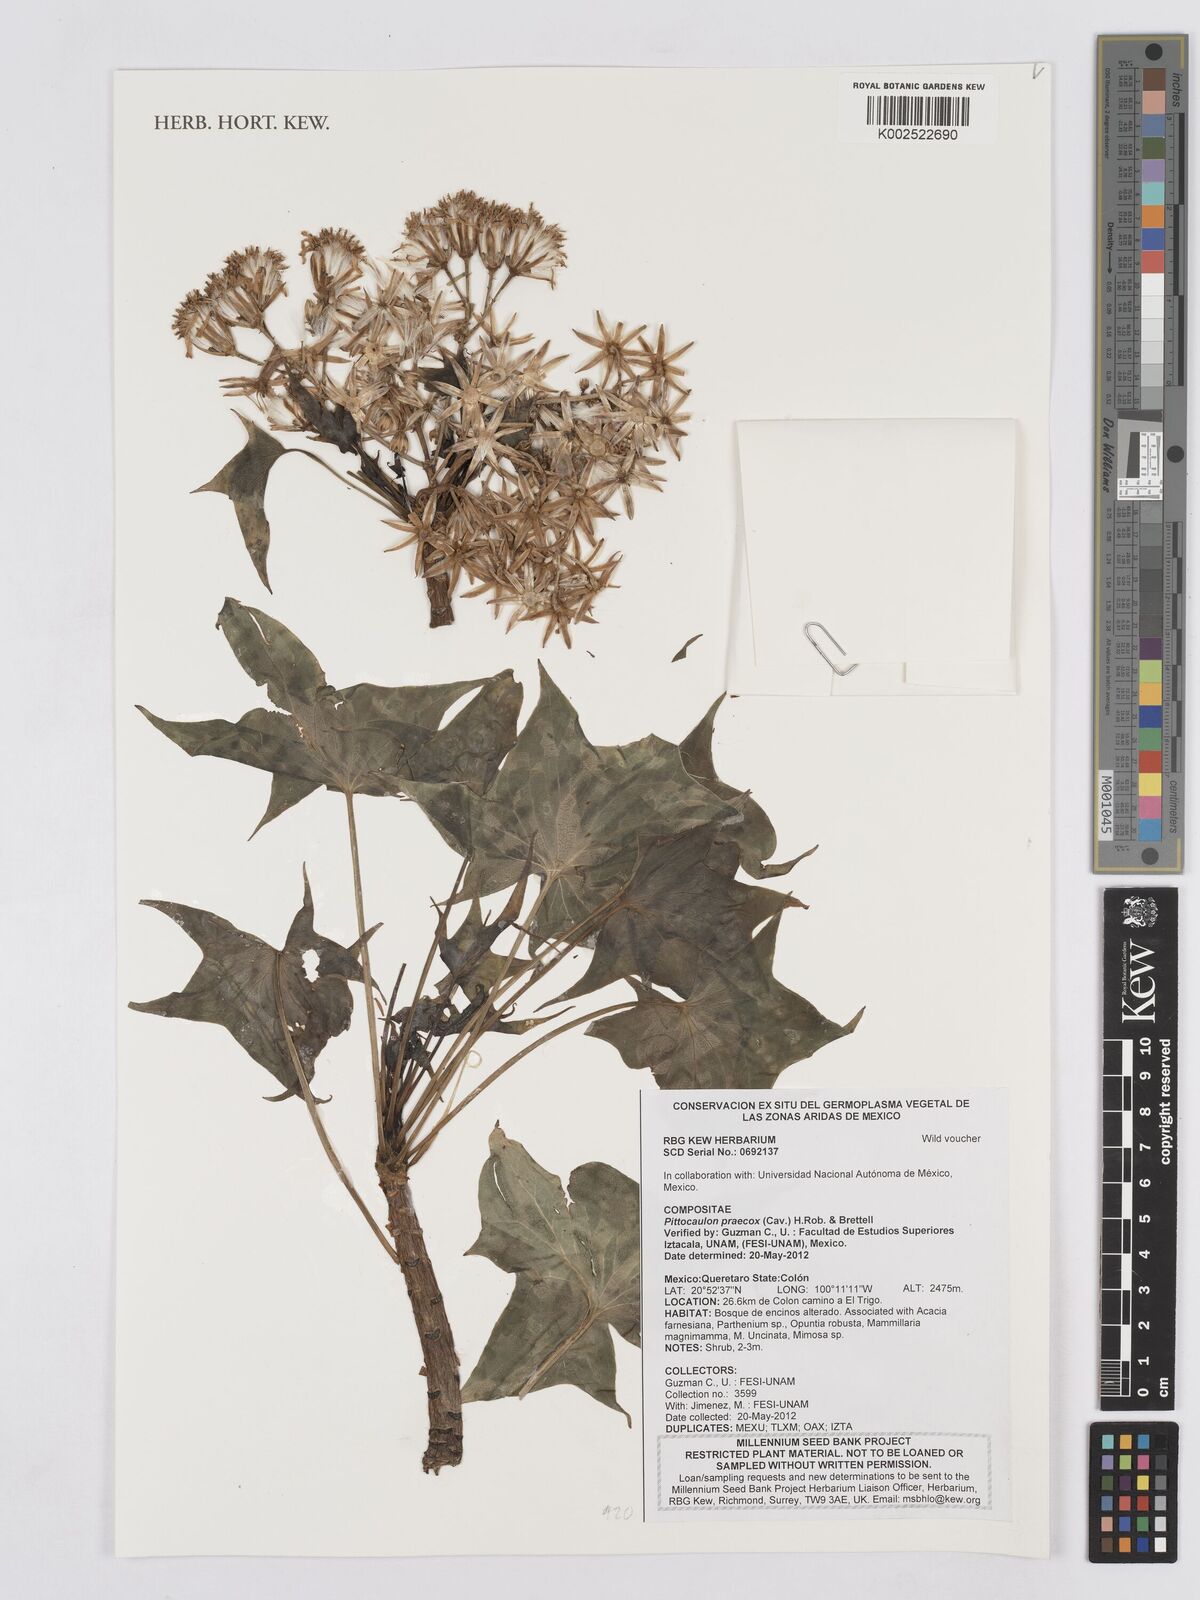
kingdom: Plantae
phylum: Tracheophyta
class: Magnoliopsida
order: Asterales
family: Asteraceae
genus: Pittocaulon
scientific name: Pittocaulon praecox
